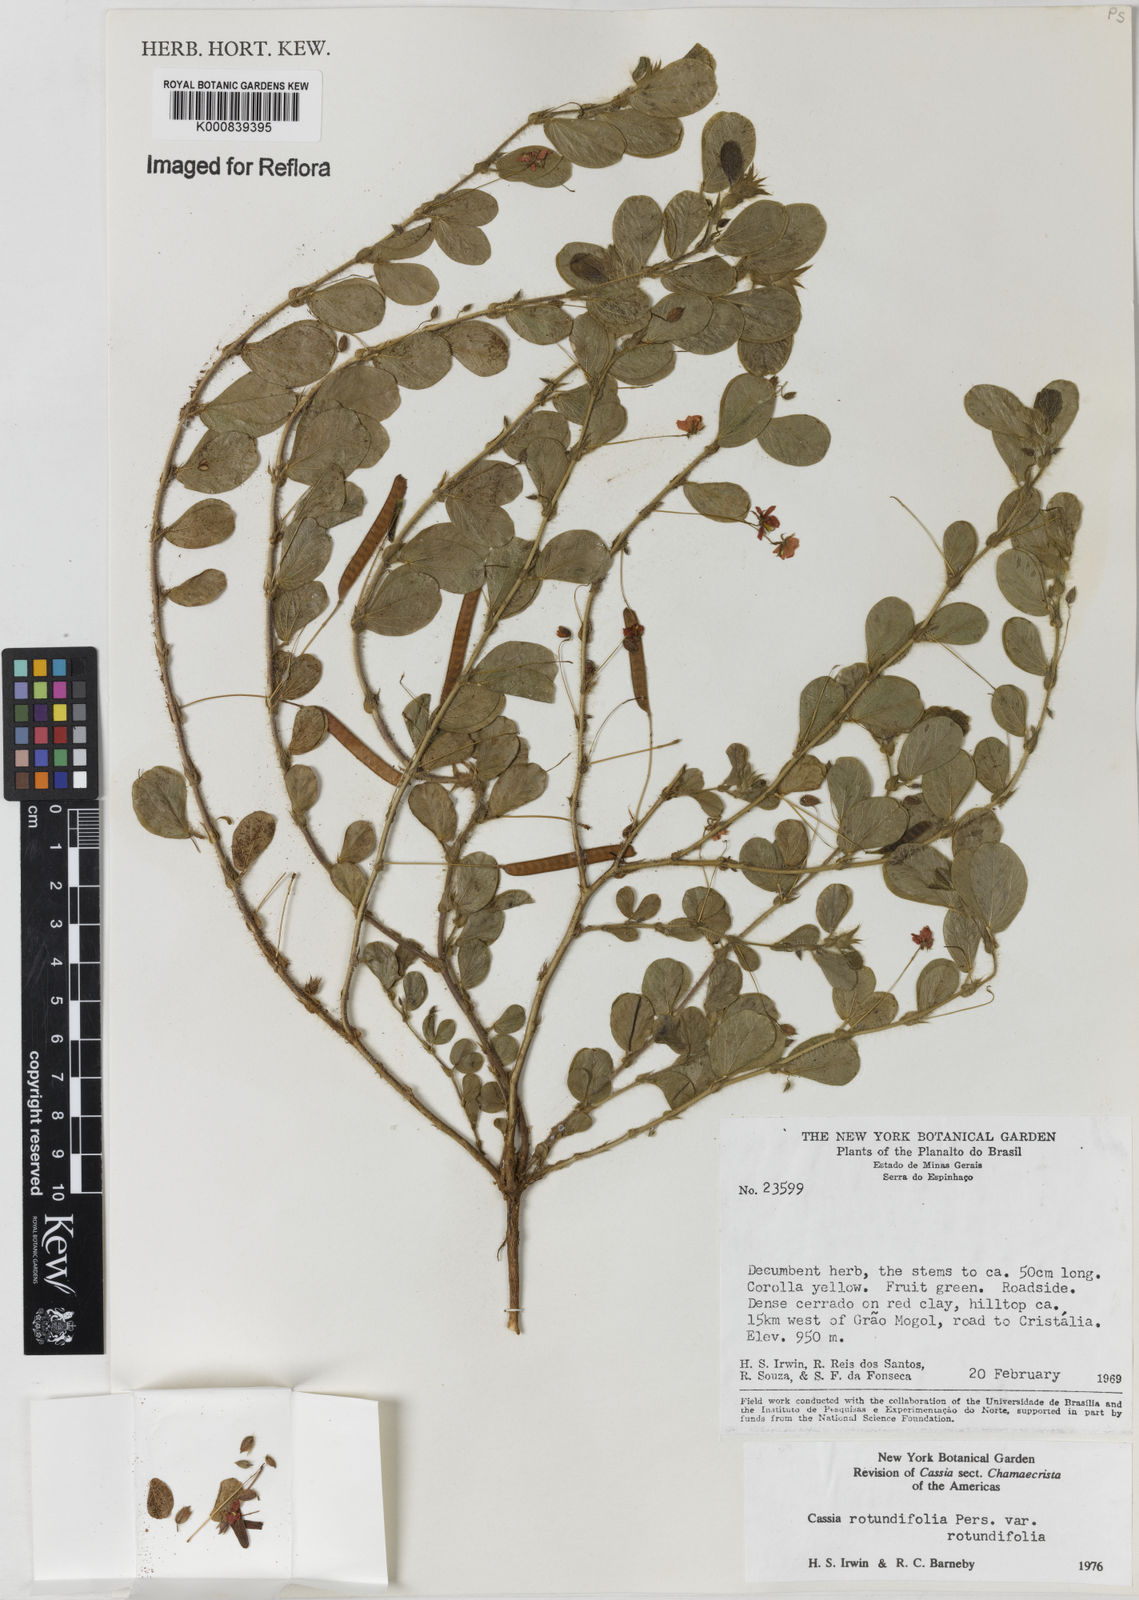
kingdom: Plantae
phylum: Tracheophyta
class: Magnoliopsida
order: Fabales
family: Fabaceae
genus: Chamaecrista
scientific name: Chamaecrista rotundifolia
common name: Round-leaf cassia
